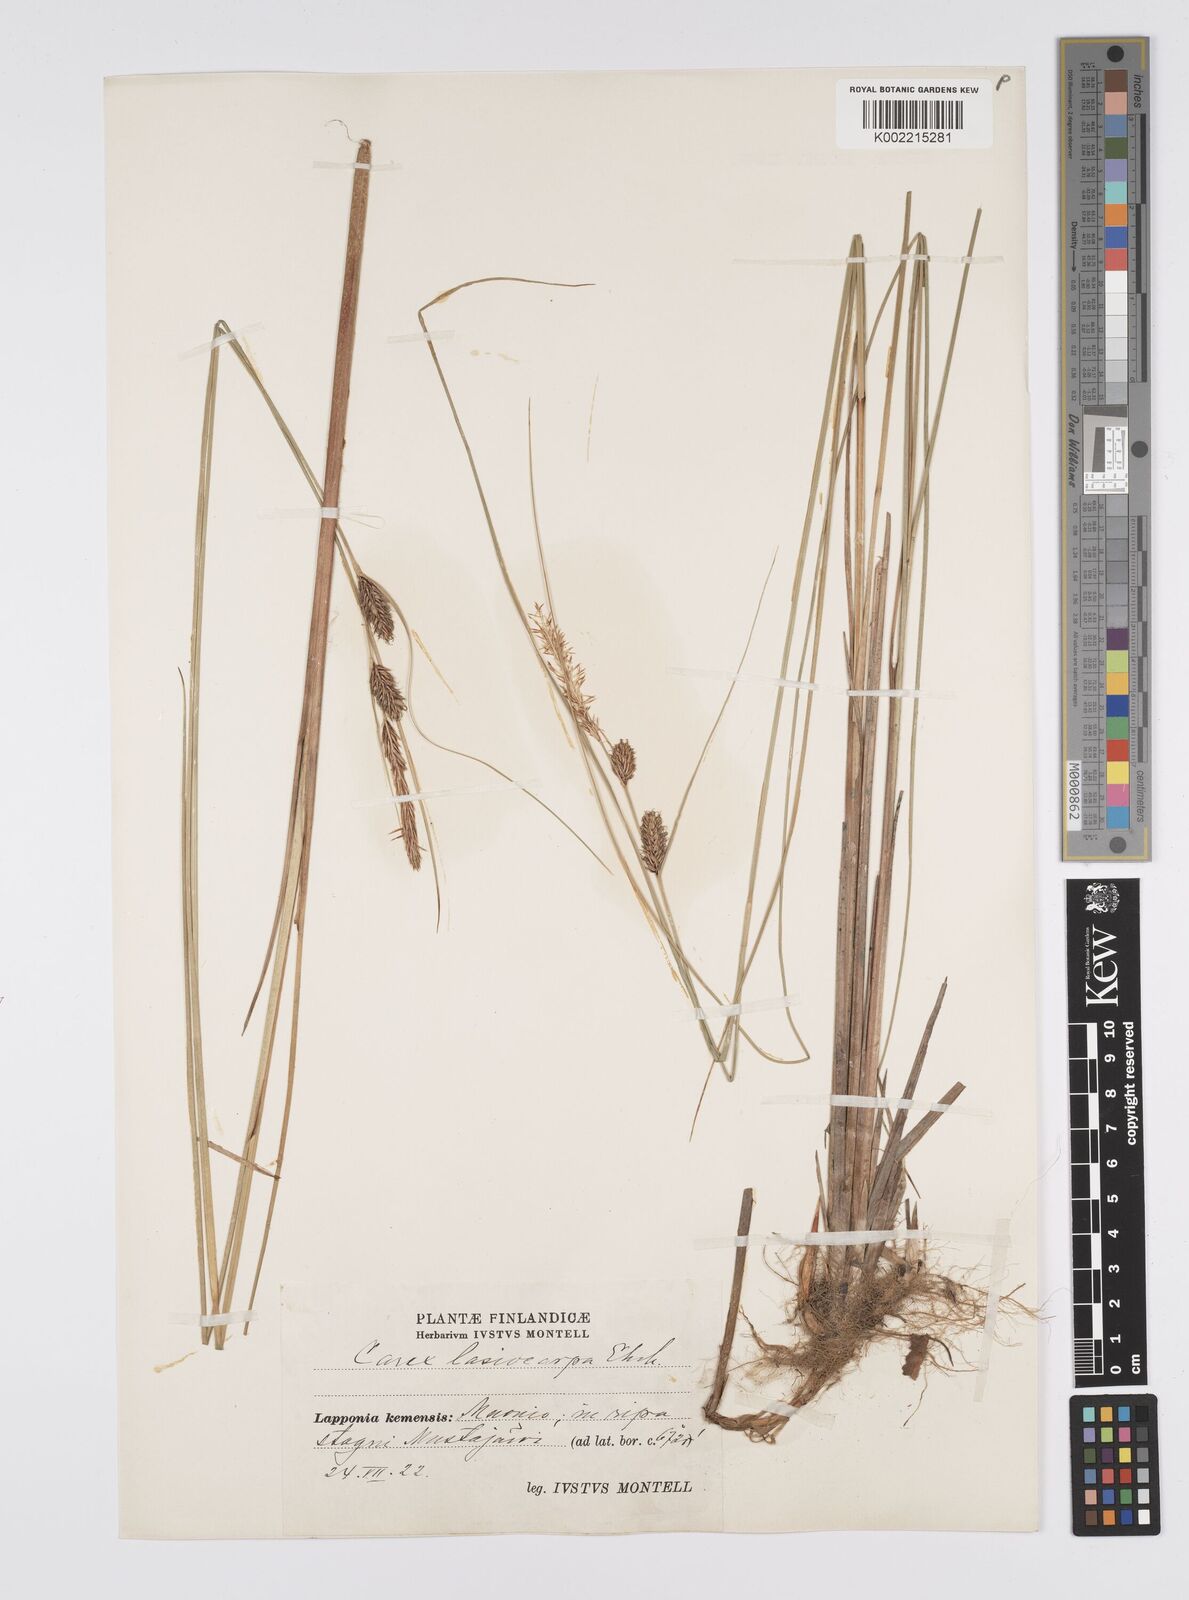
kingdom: Plantae
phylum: Tracheophyta
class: Liliopsida
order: Poales
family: Cyperaceae
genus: Carex
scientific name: Carex lasiocarpa
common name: Slender sedge
